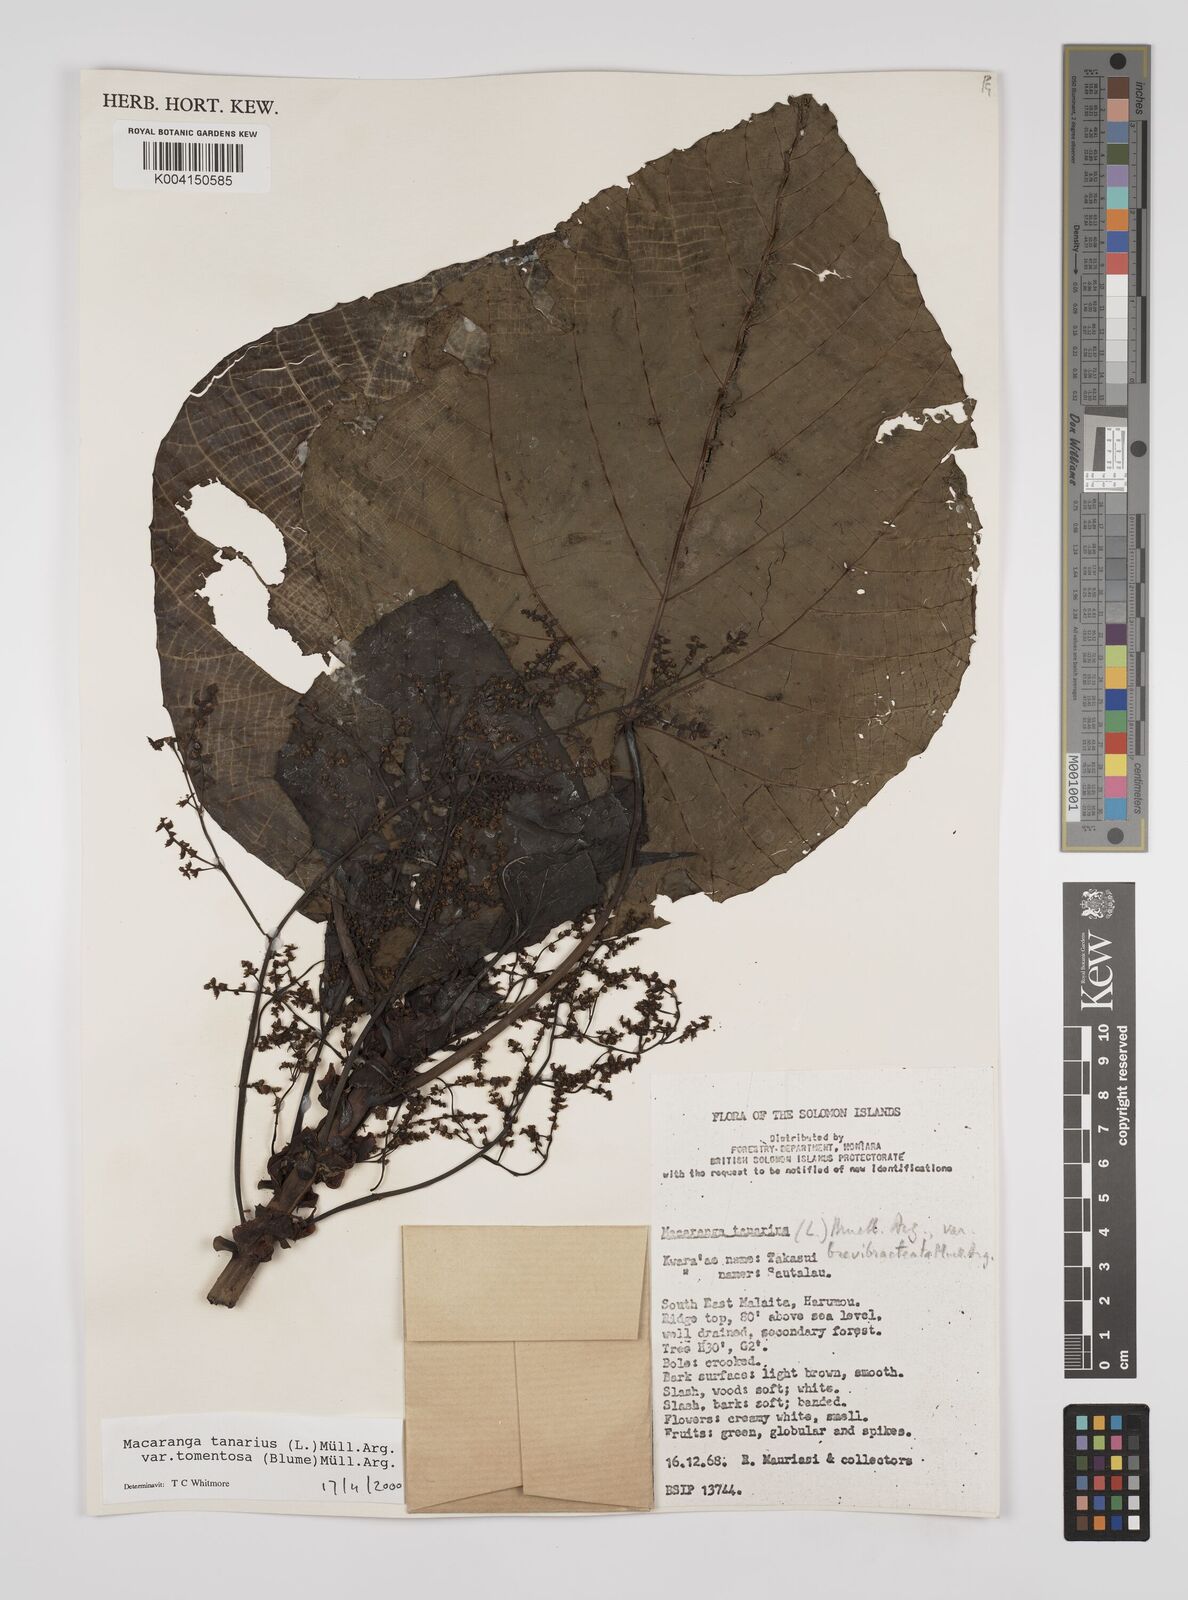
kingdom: Plantae
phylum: Tracheophyta
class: Magnoliopsida
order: Malpighiales
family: Euphorbiaceae
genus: Macaranga
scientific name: Macaranga tanarius
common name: Parasol leaf tree
